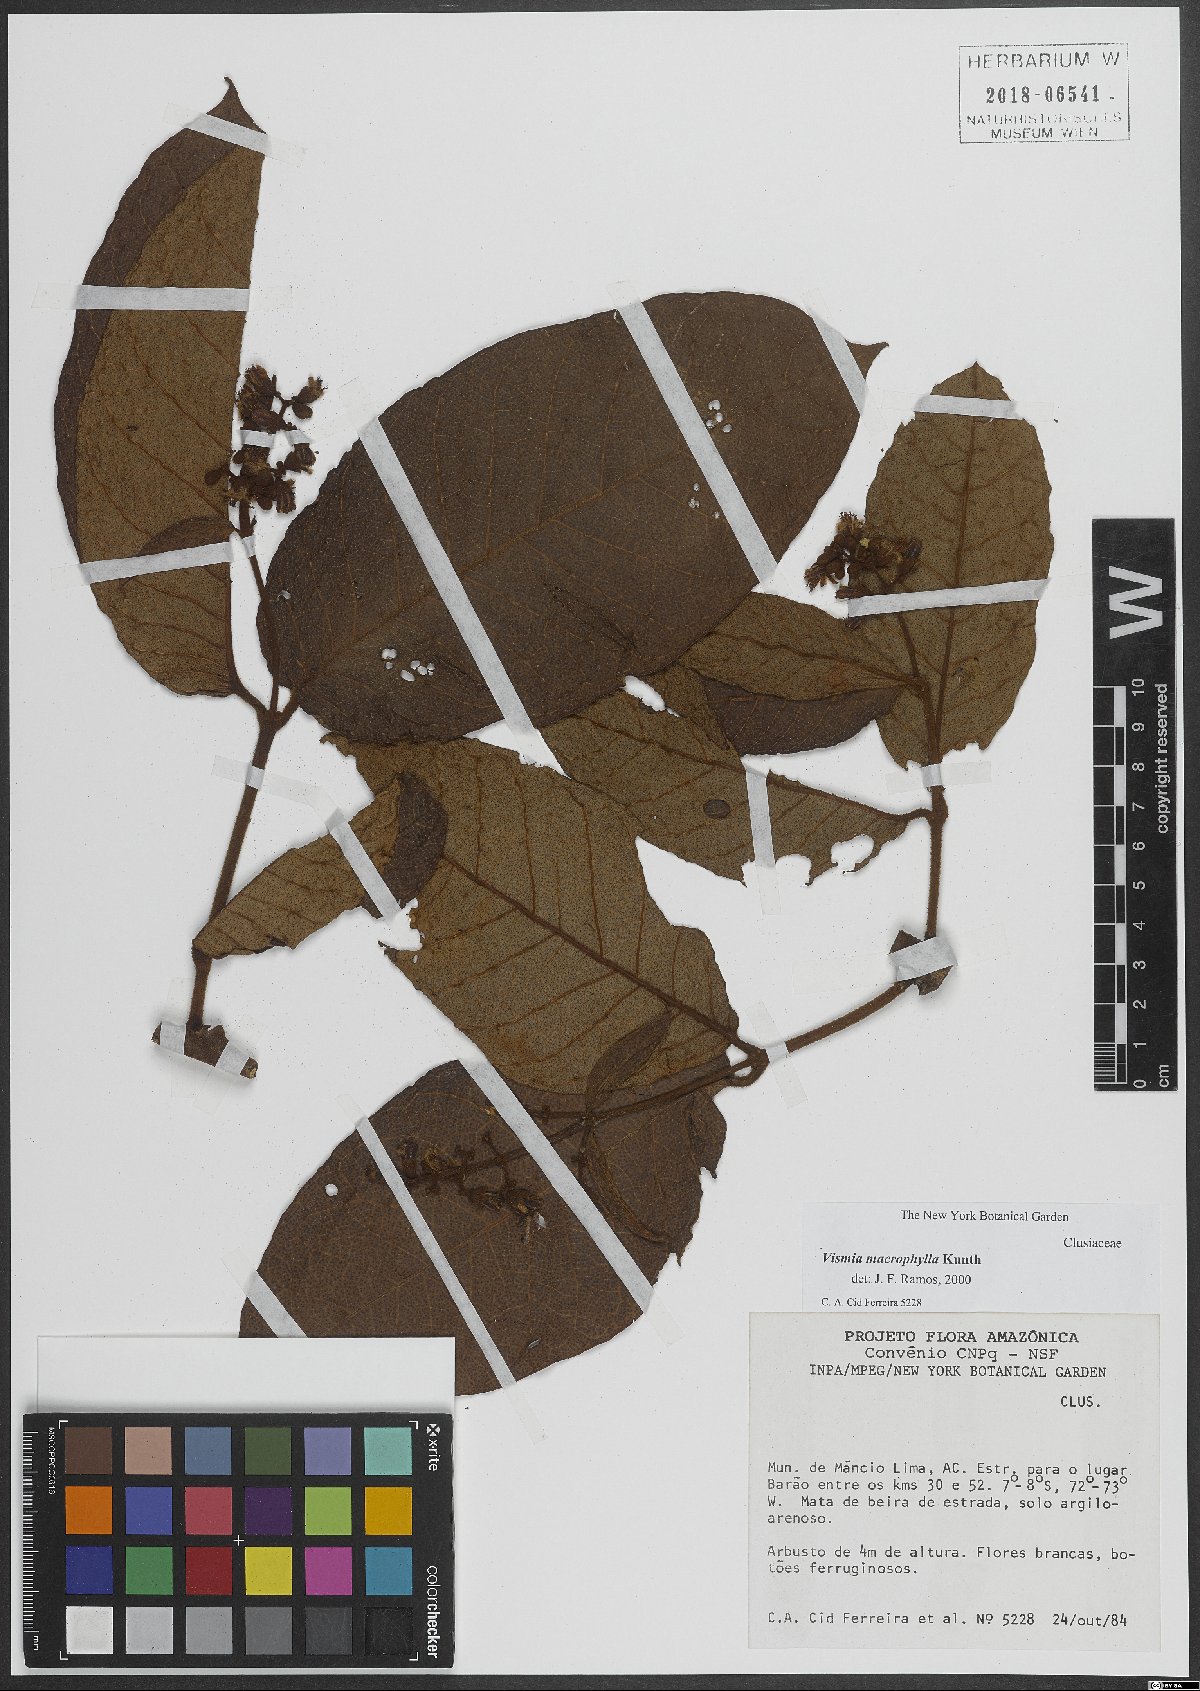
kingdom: Plantae
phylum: Tracheophyta
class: Magnoliopsida
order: Malpighiales
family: Hypericaceae
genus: Vismia
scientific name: Vismia macrophylla
